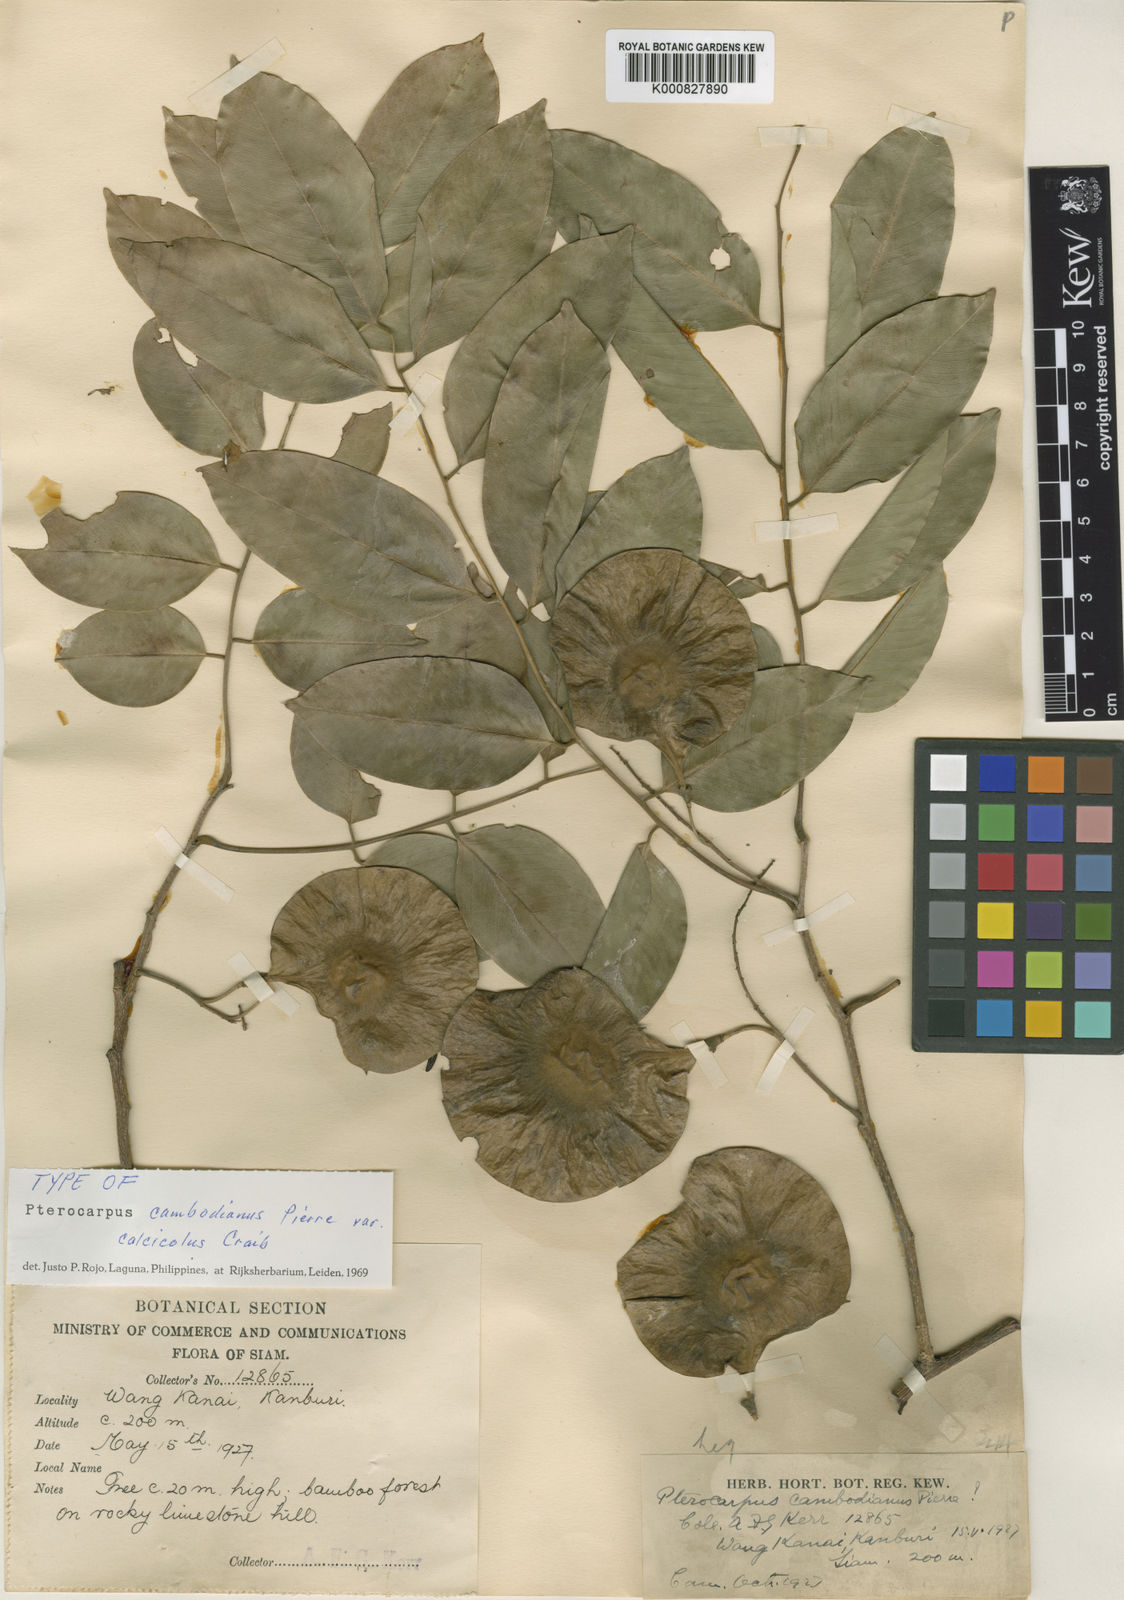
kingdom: Plantae
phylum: Tracheophyta
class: Magnoliopsida
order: Fabales
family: Fabaceae
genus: Pterocarpus
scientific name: Pterocarpus
